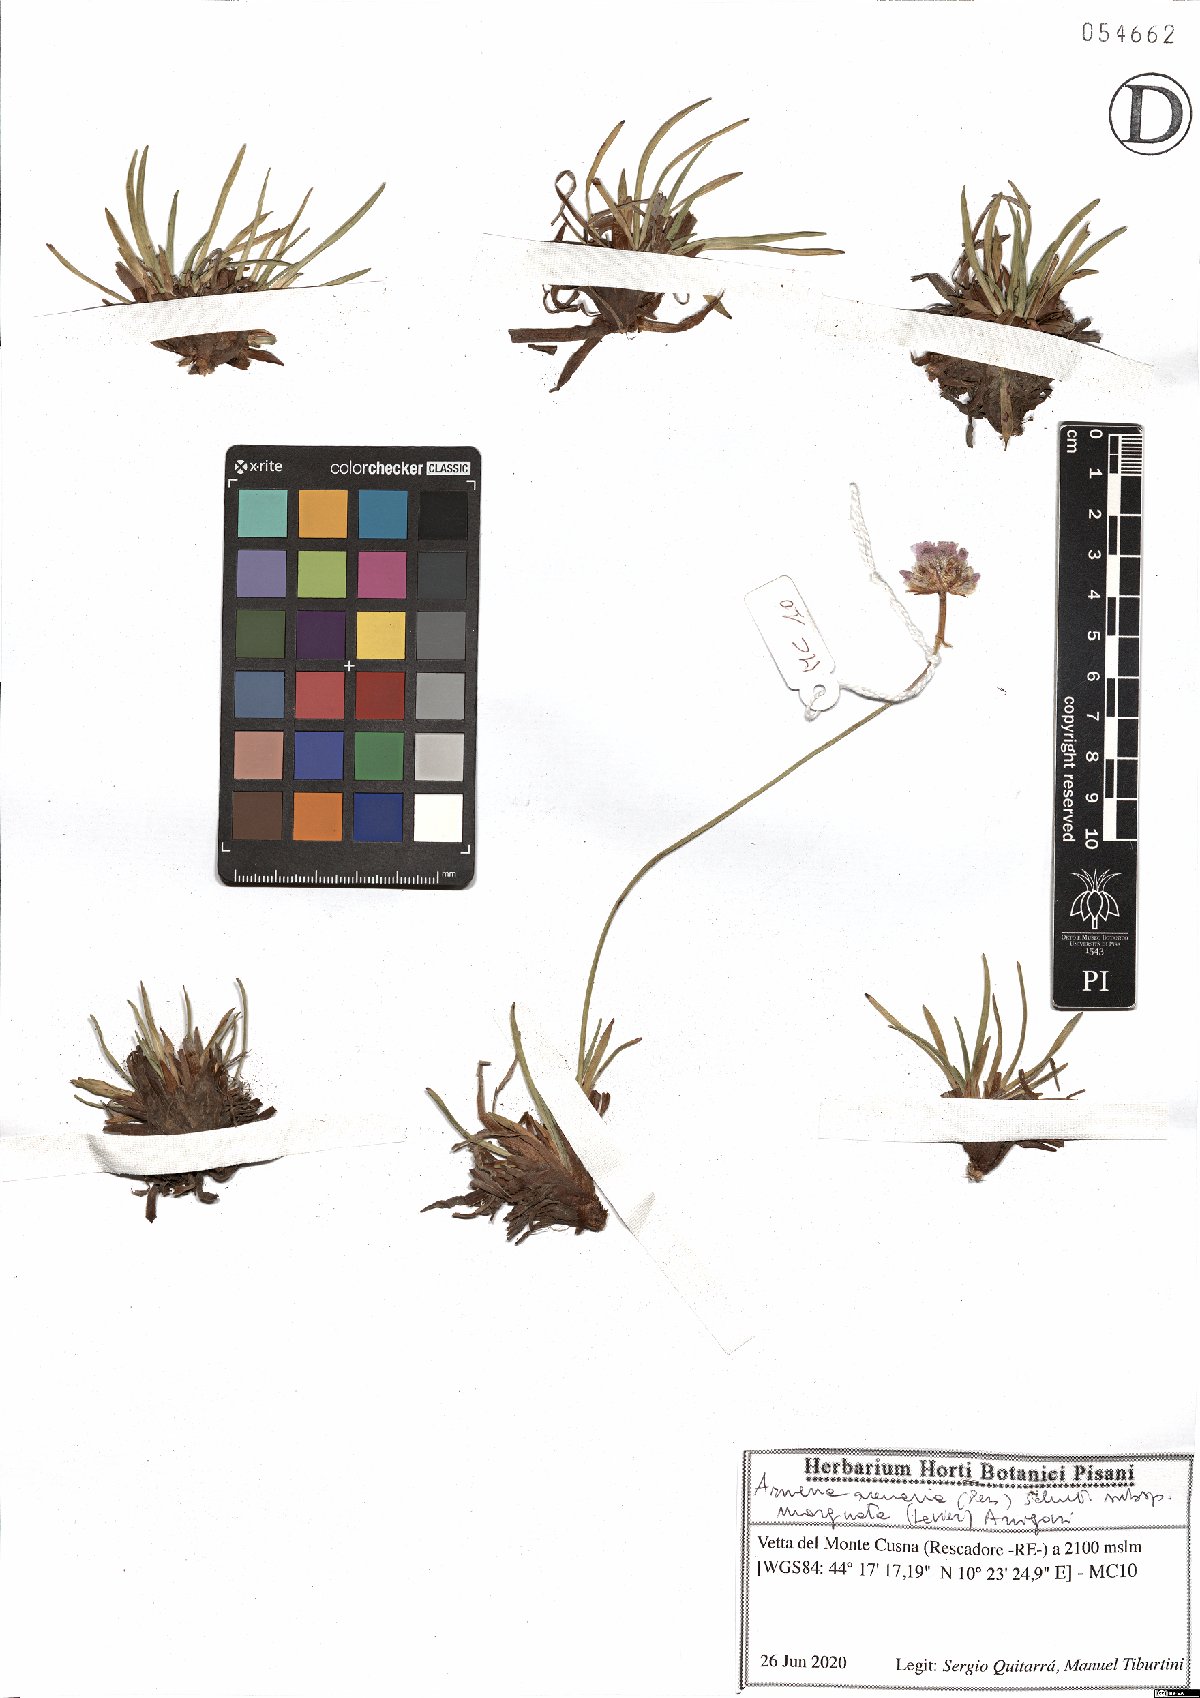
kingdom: Plantae
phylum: Tracheophyta
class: Magnoliopsida
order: Caryophyllales
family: Plumbaginaceae
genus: Armeria
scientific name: Armeria arenaria
